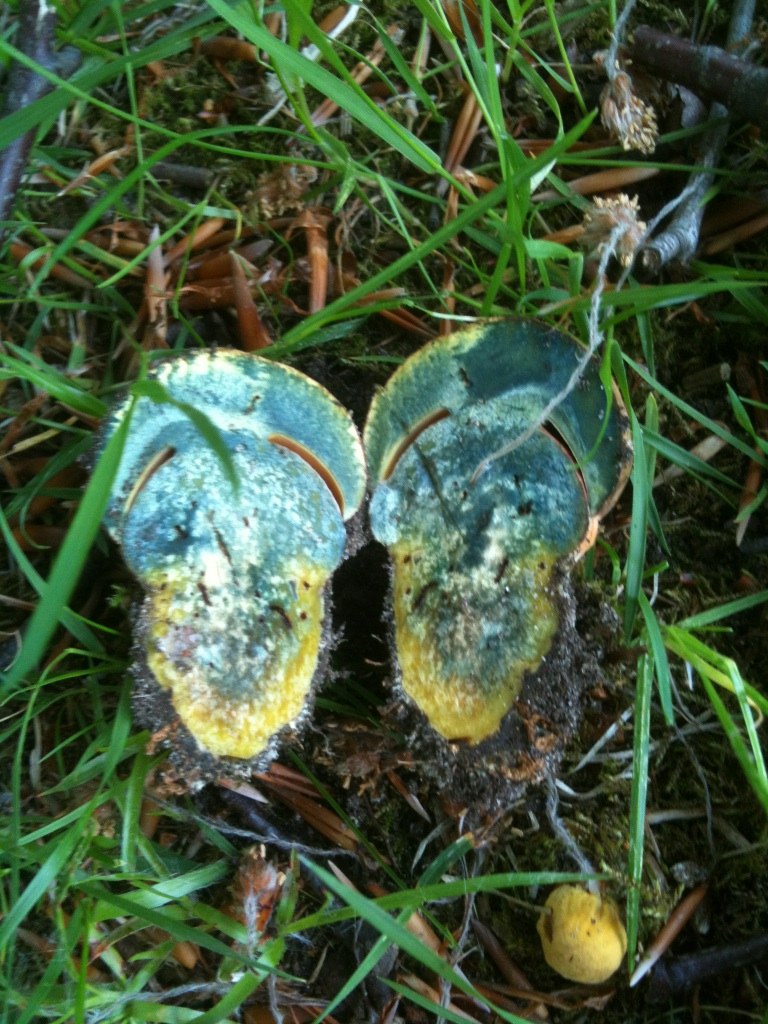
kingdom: Fungi
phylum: Basidiomycota
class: Agaricomycetes
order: Boletales
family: Boletaceae
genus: Neoboletus
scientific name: Neoboletus erythropus
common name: punktstokket indigorørhat
